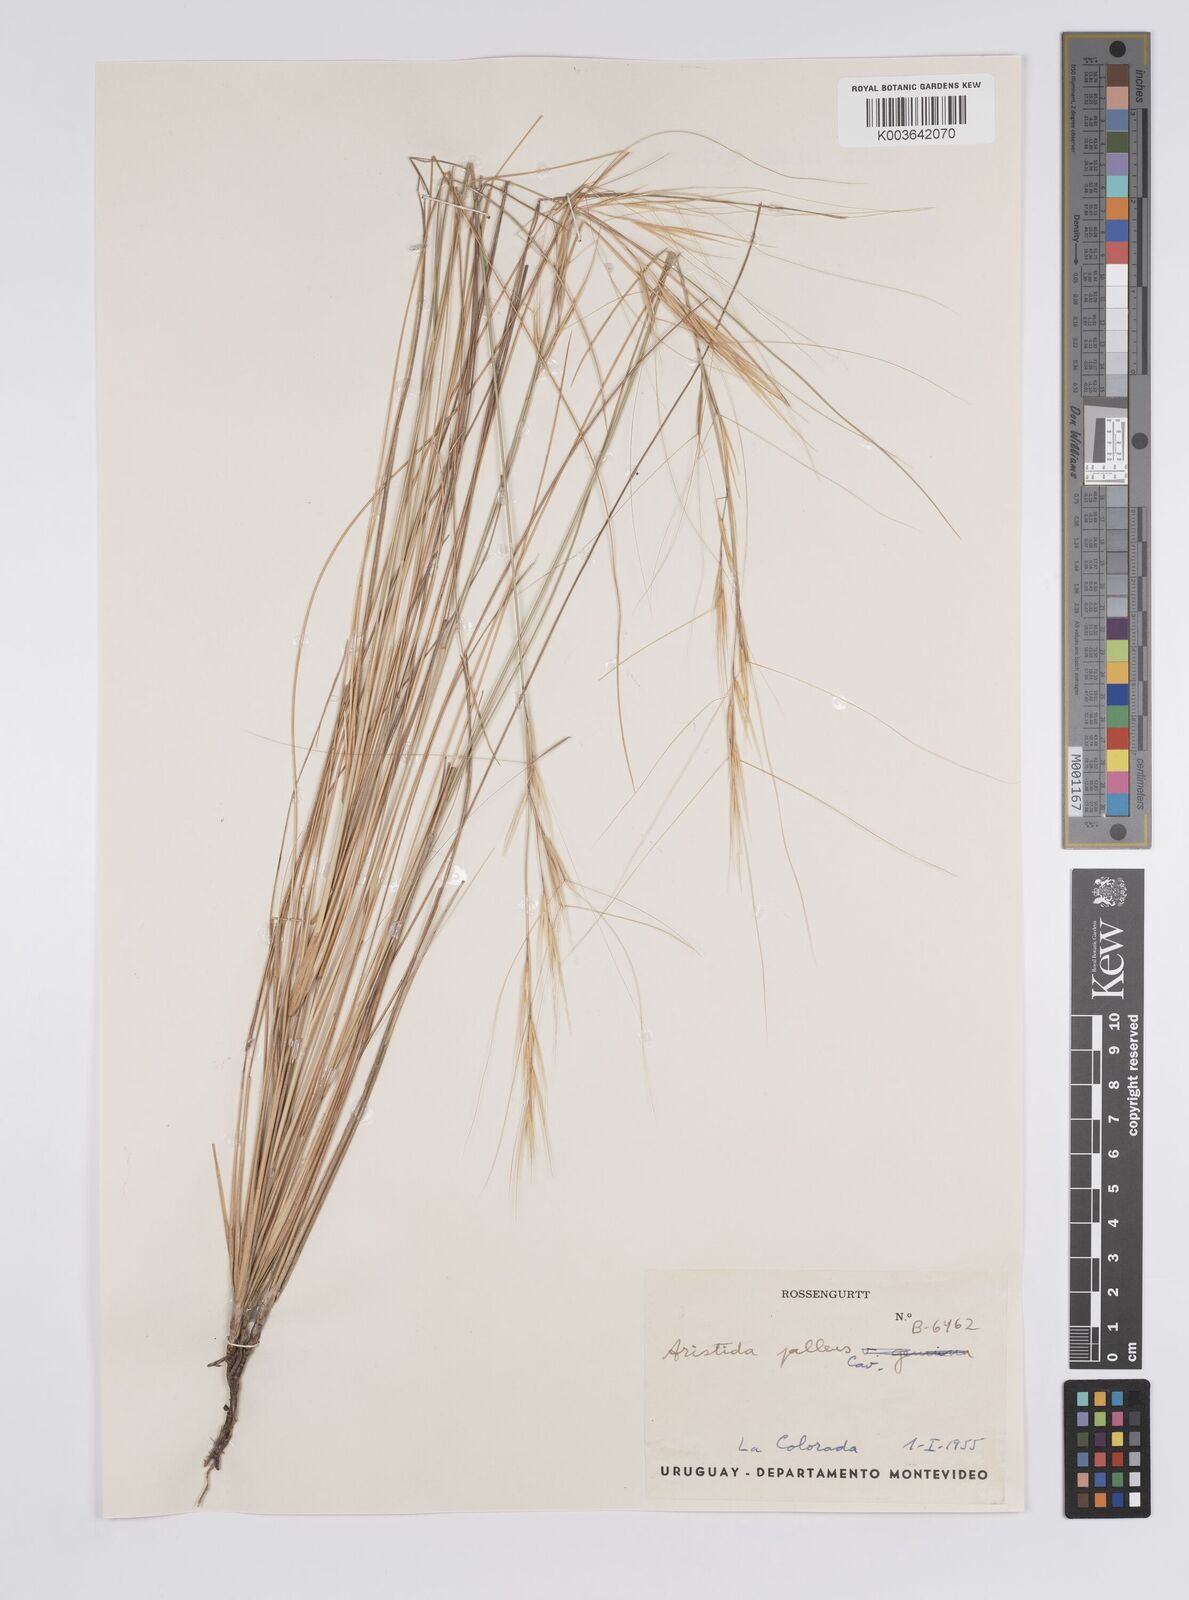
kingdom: Plantae
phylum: Tracheophyta
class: Liliopsida
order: Poales
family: Poaceae
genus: Aristida
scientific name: Aristida pallens
